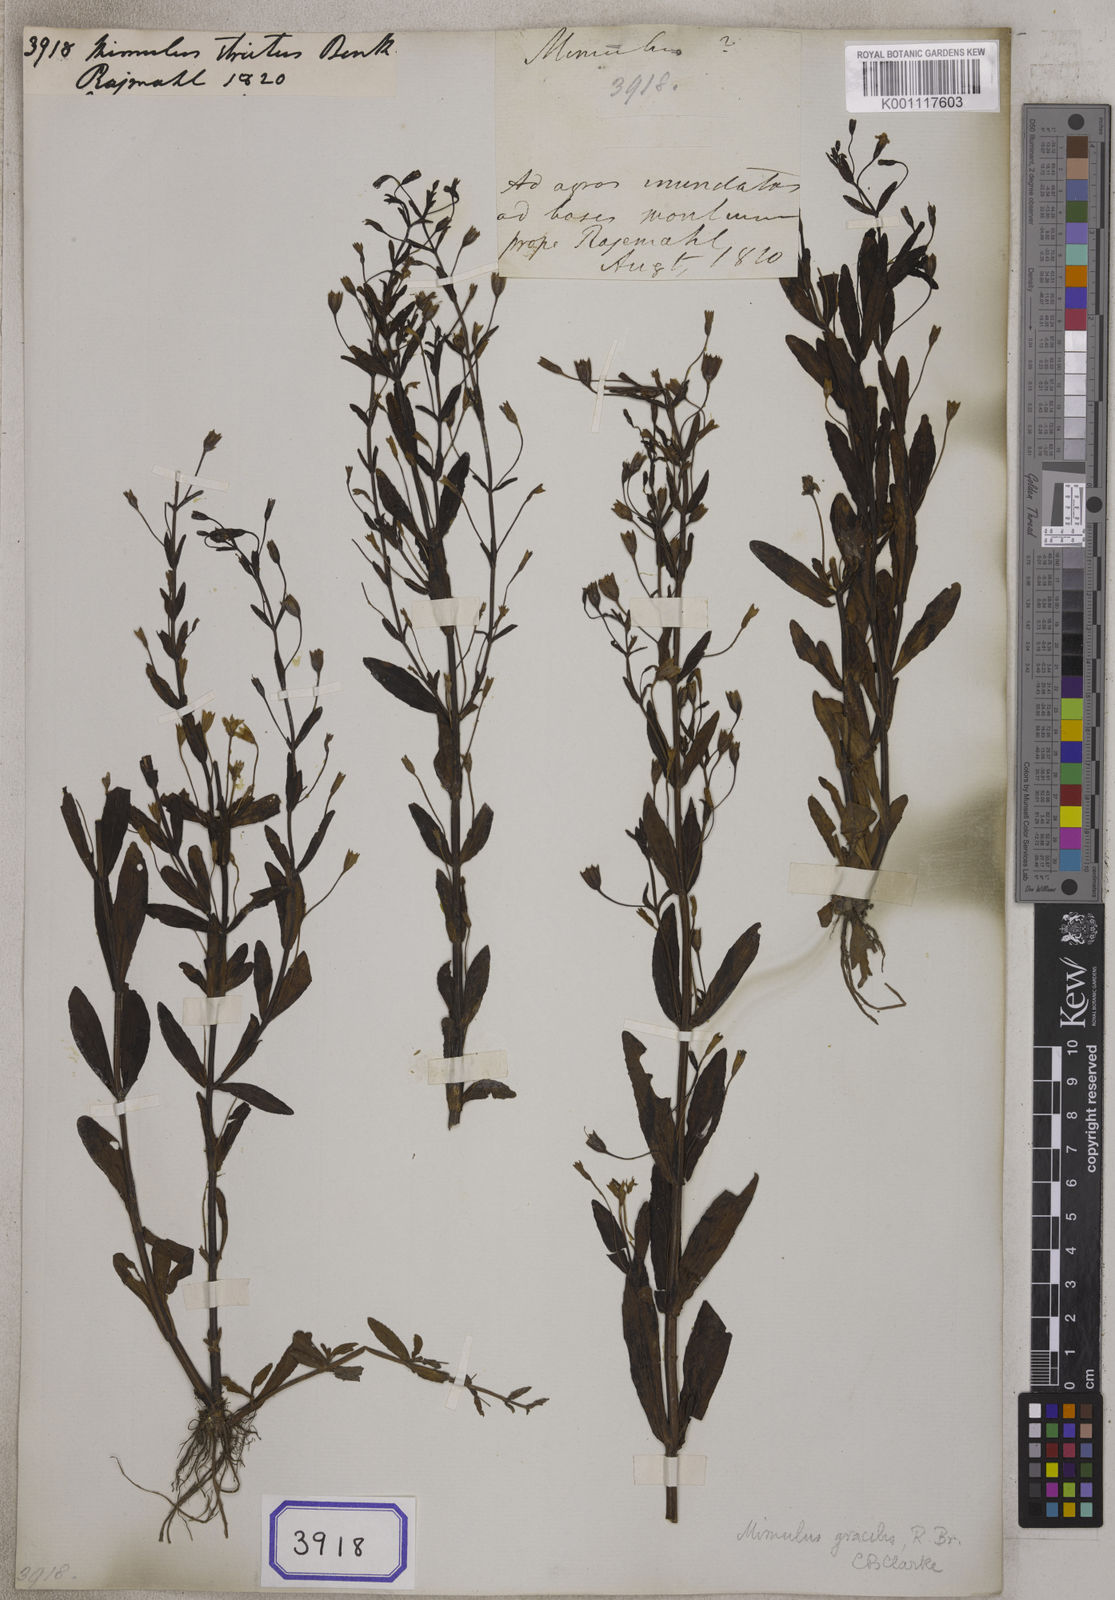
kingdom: Plantae
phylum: Tracheophyta
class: Magnoliopsida
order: Lamiales
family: Phrymaceae
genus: Mimulus
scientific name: Mimulus strictus
